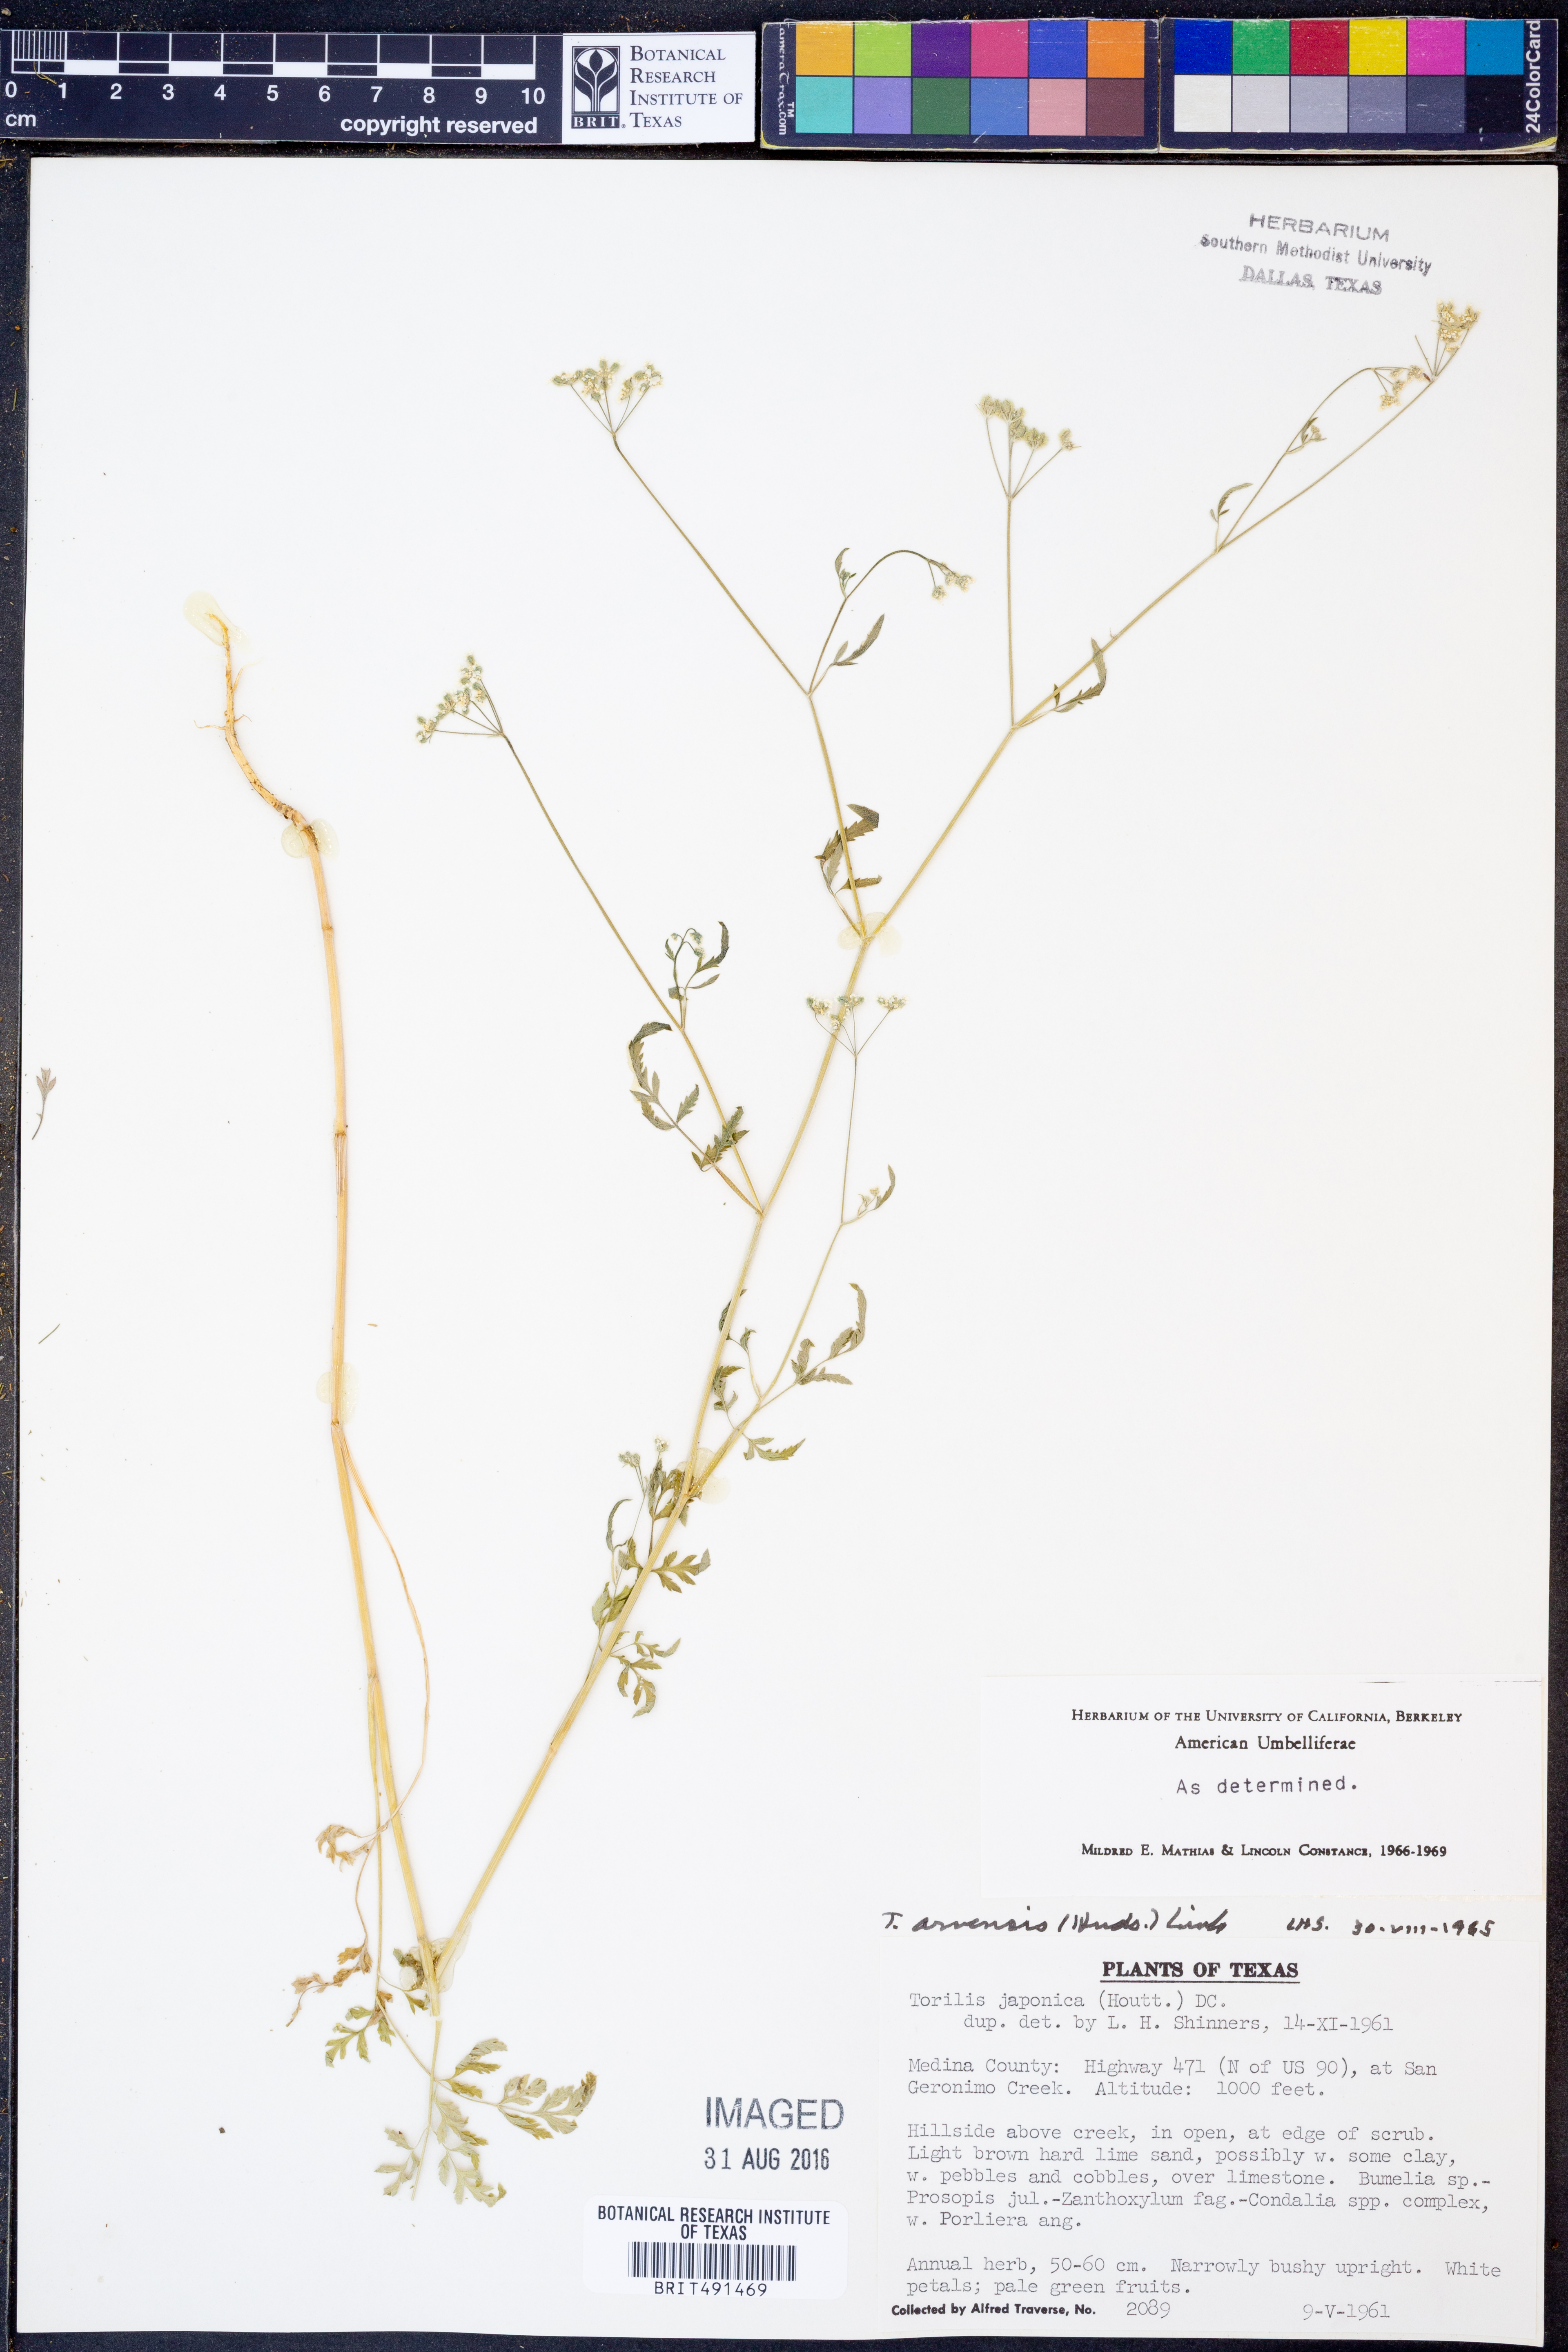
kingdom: Plantae
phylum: Tracheophyta
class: Magnoliopsida
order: Apiales
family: Apiaceae
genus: Torilis
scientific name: Torilis arvensis
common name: Spreading hedge-parsley
